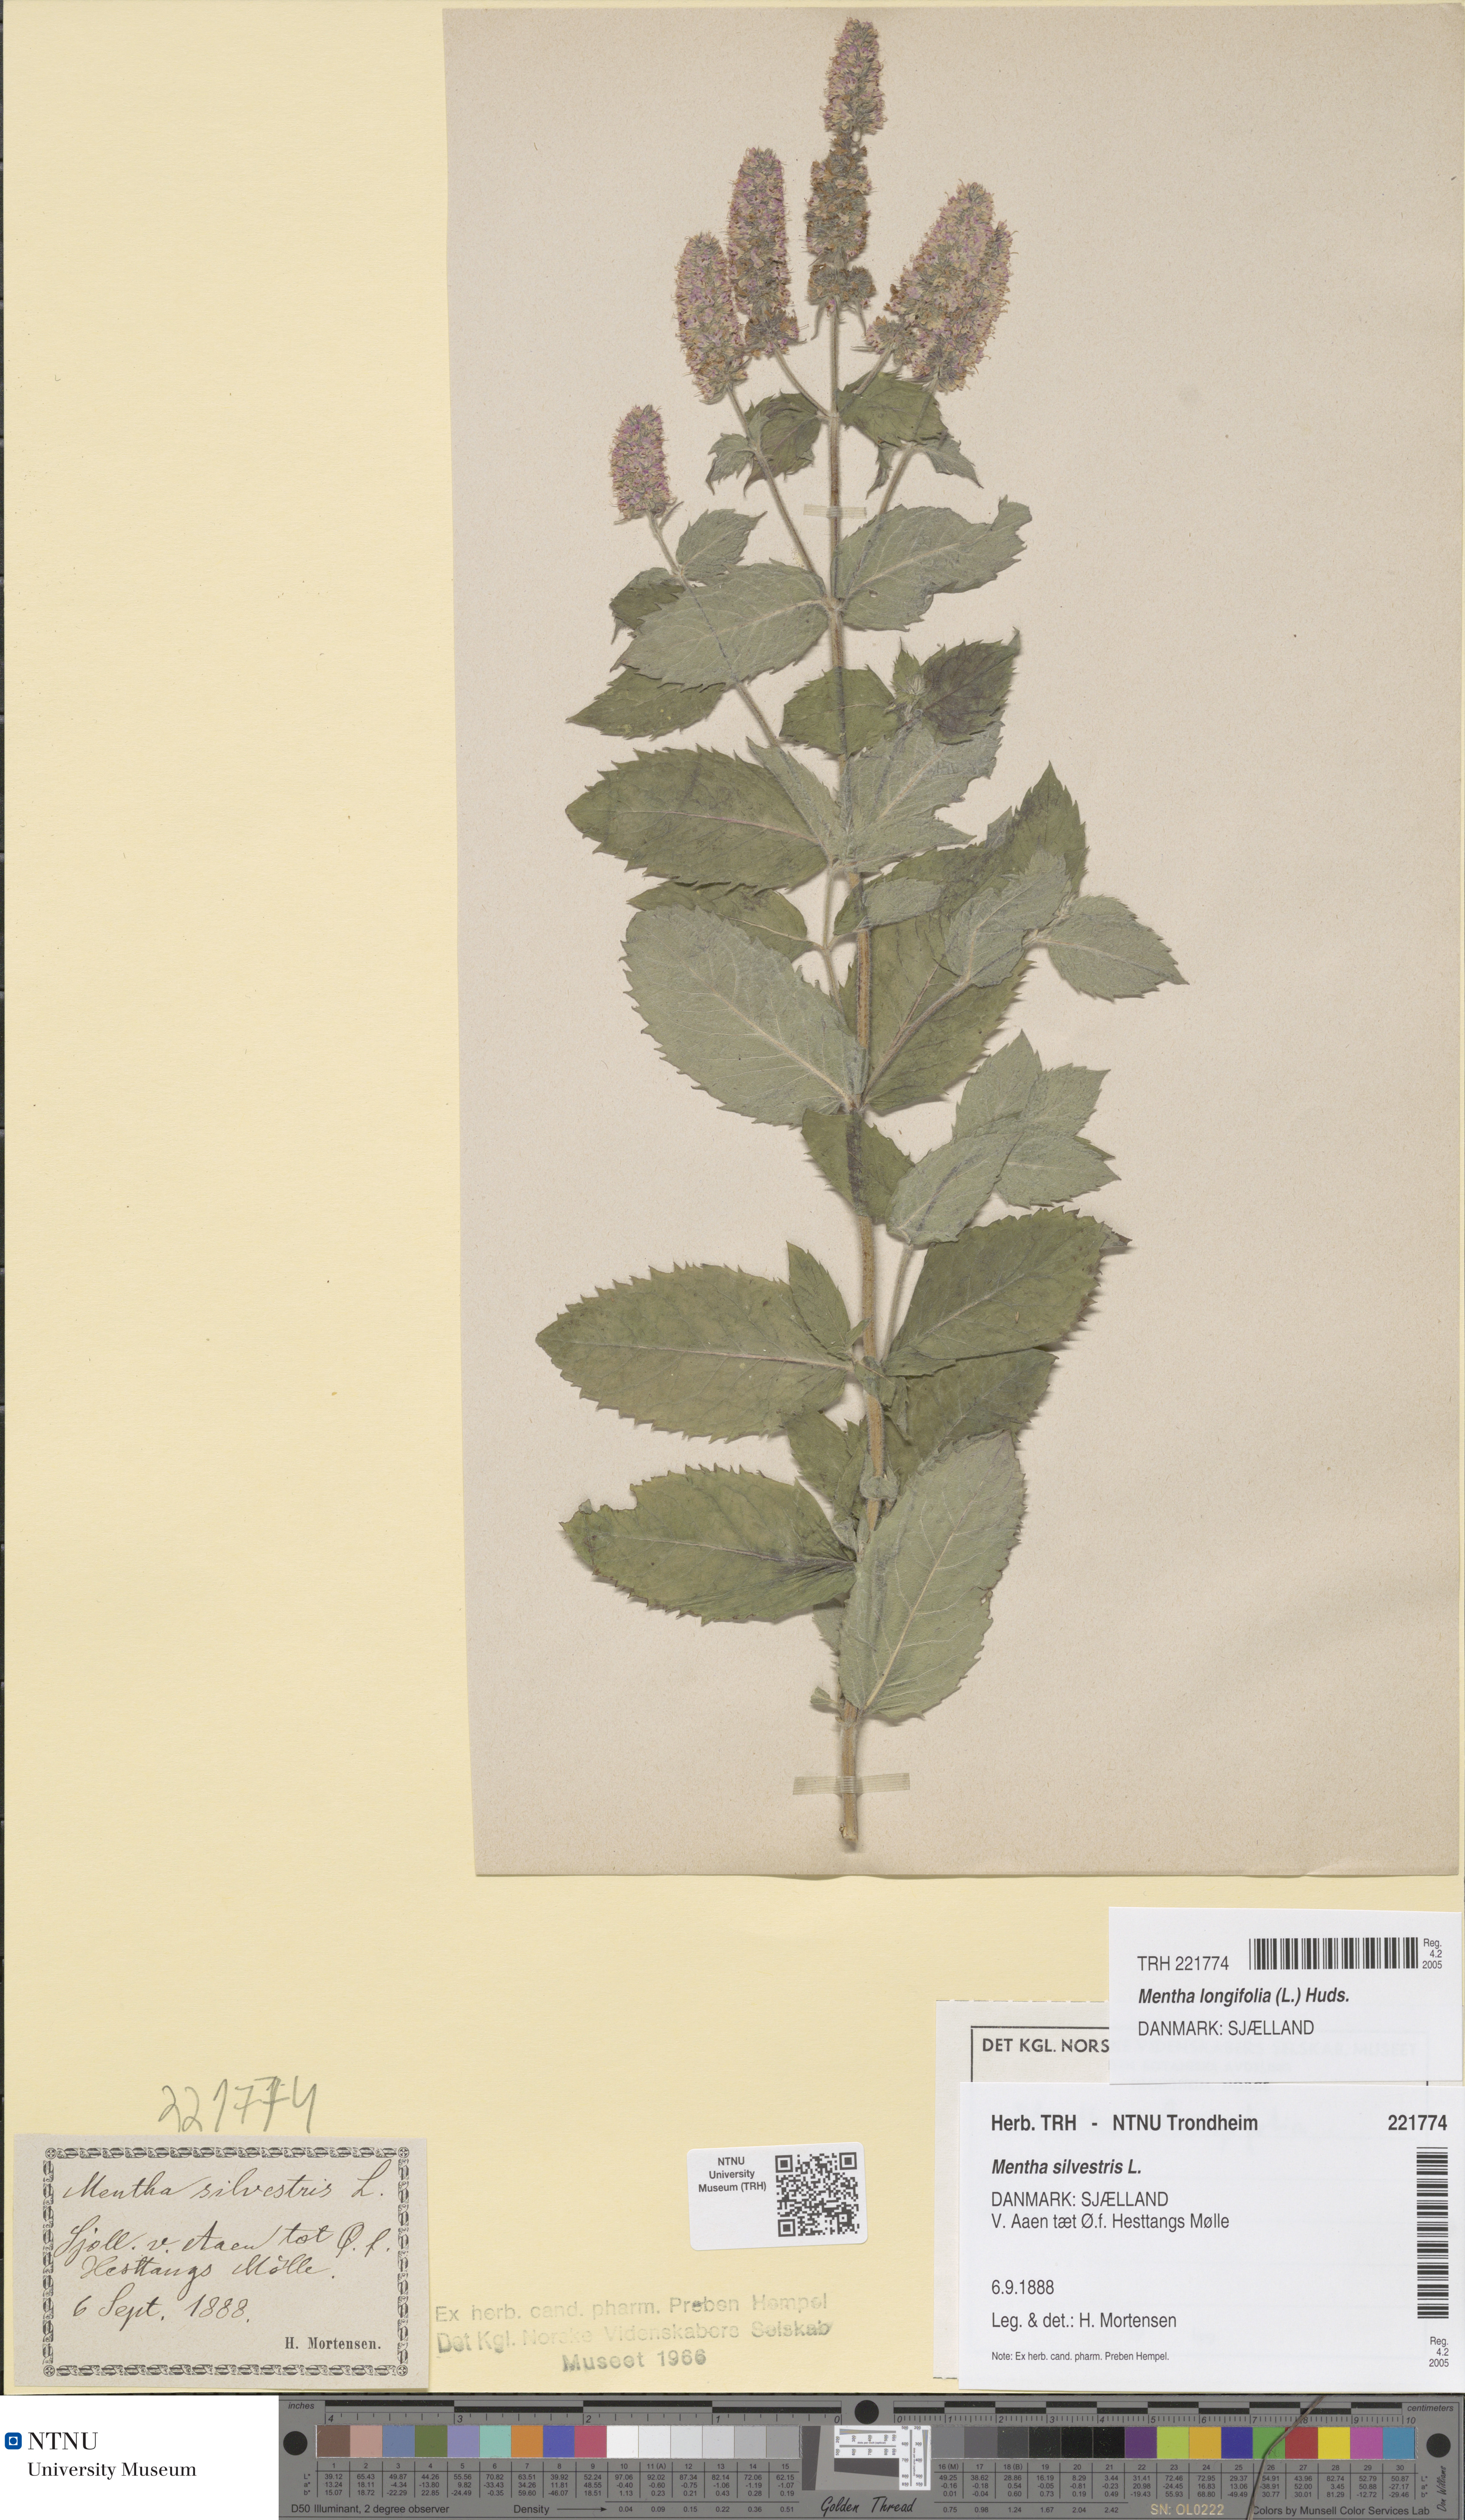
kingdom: Plantae
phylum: Tracheophyta
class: Magnoliopsida
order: Lamiales
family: Lamiaceae
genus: Mentha
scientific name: Mentha longifolia
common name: Horse mint
